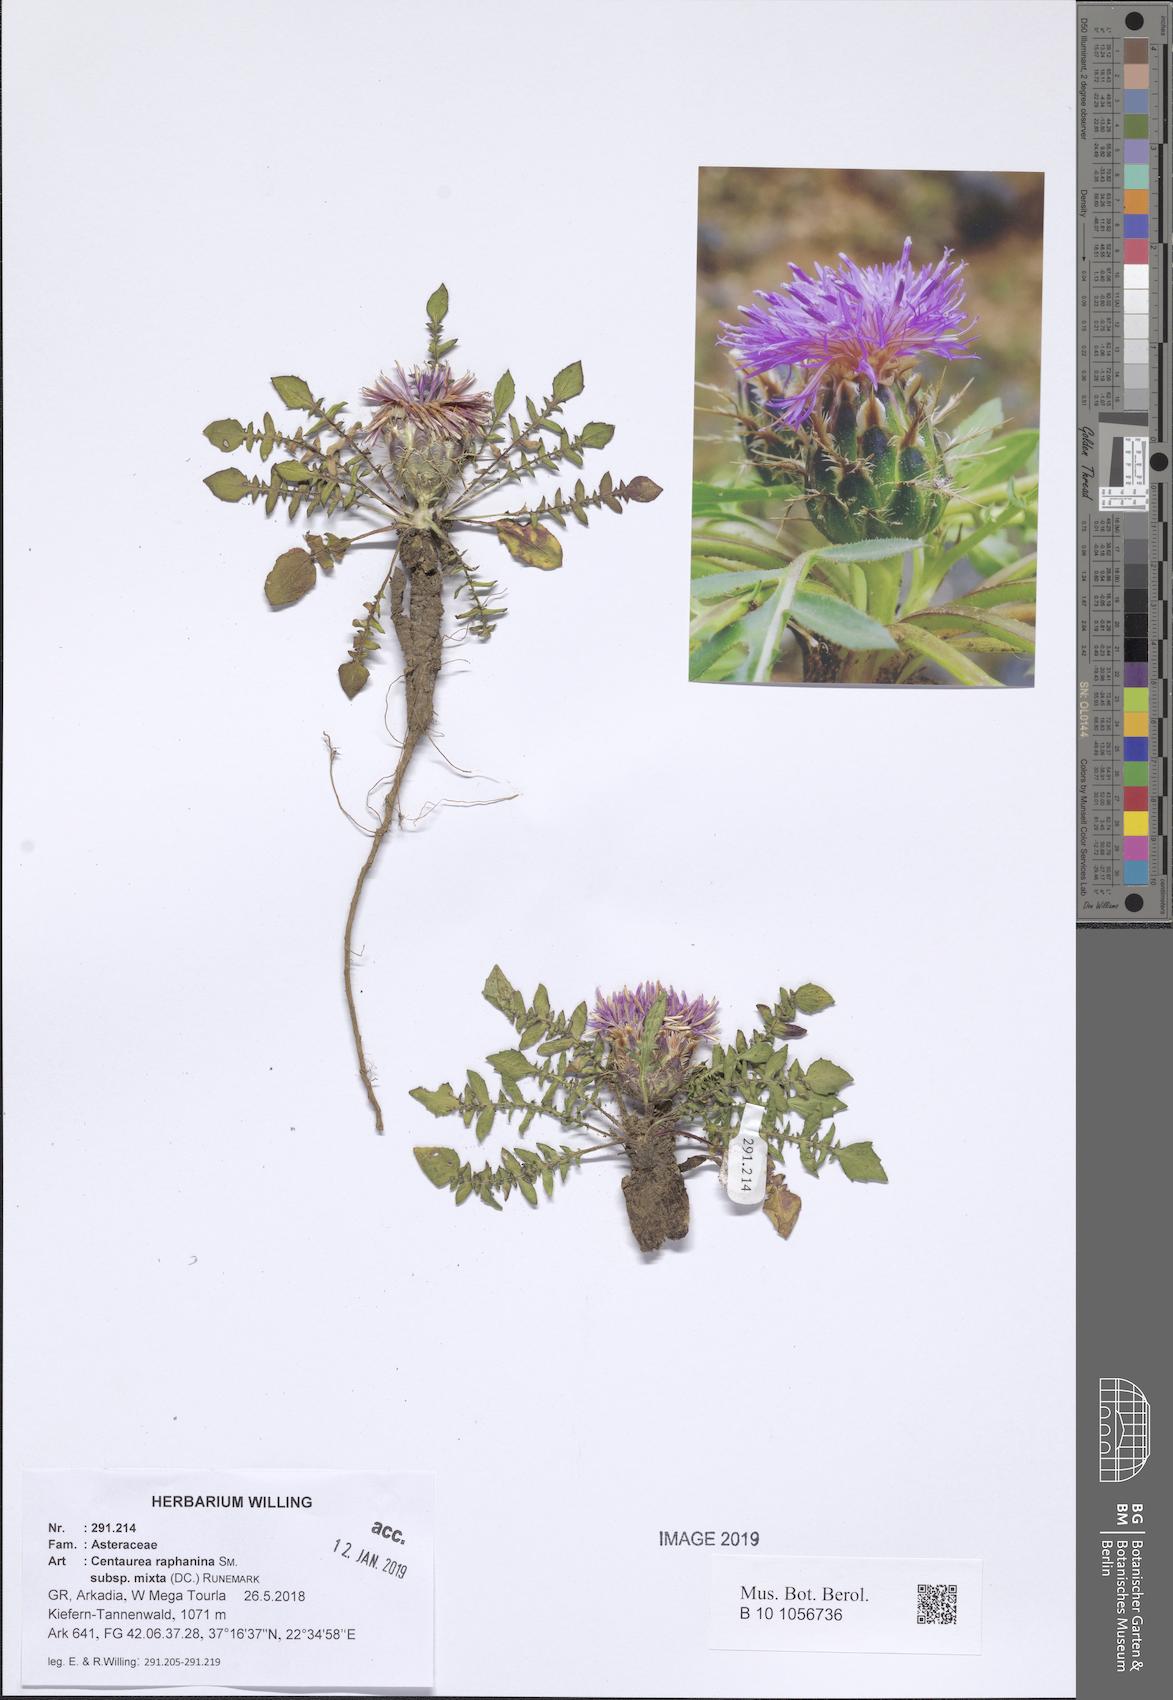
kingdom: Plantae
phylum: Tracheophyta
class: Magnoliopsida
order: Asterales
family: Asteraceae
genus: Centaurea
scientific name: Centaurea raphanina
